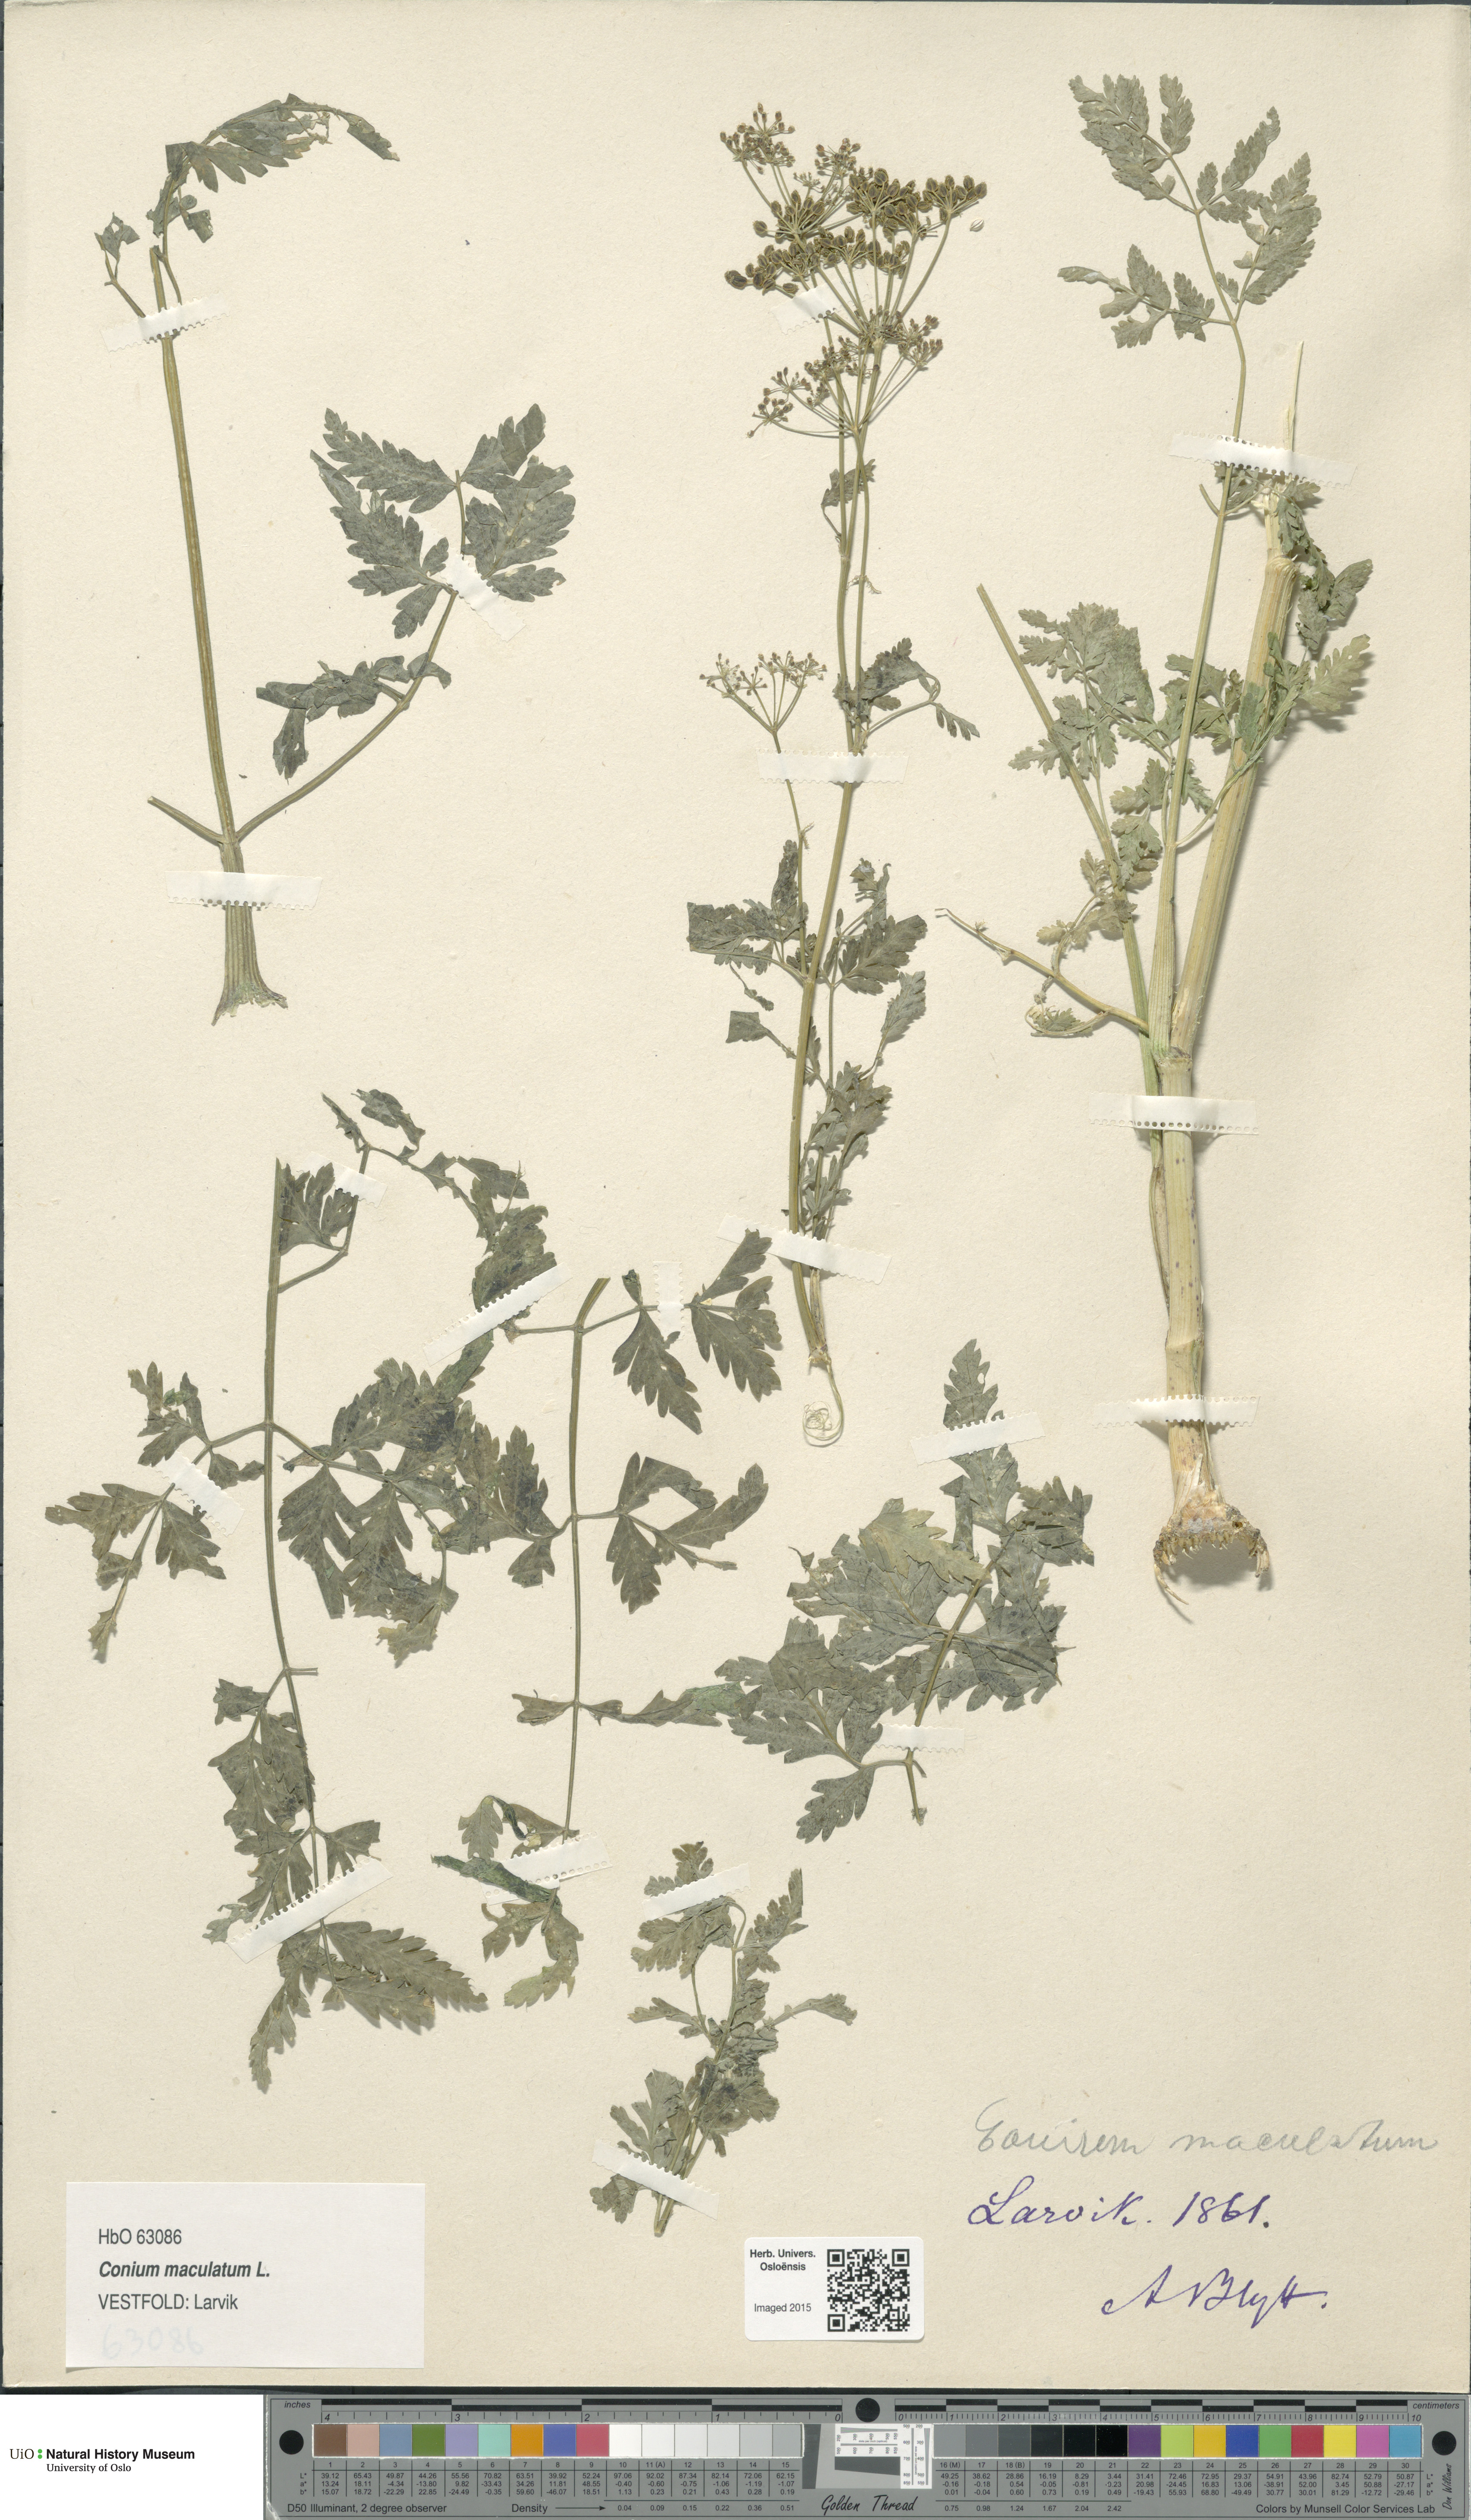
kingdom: Plantae
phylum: Tracheophyta
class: Magnoliopsida
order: Apiales
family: Apiaceae
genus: Conium
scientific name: Conium maculatum
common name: Hemlock
